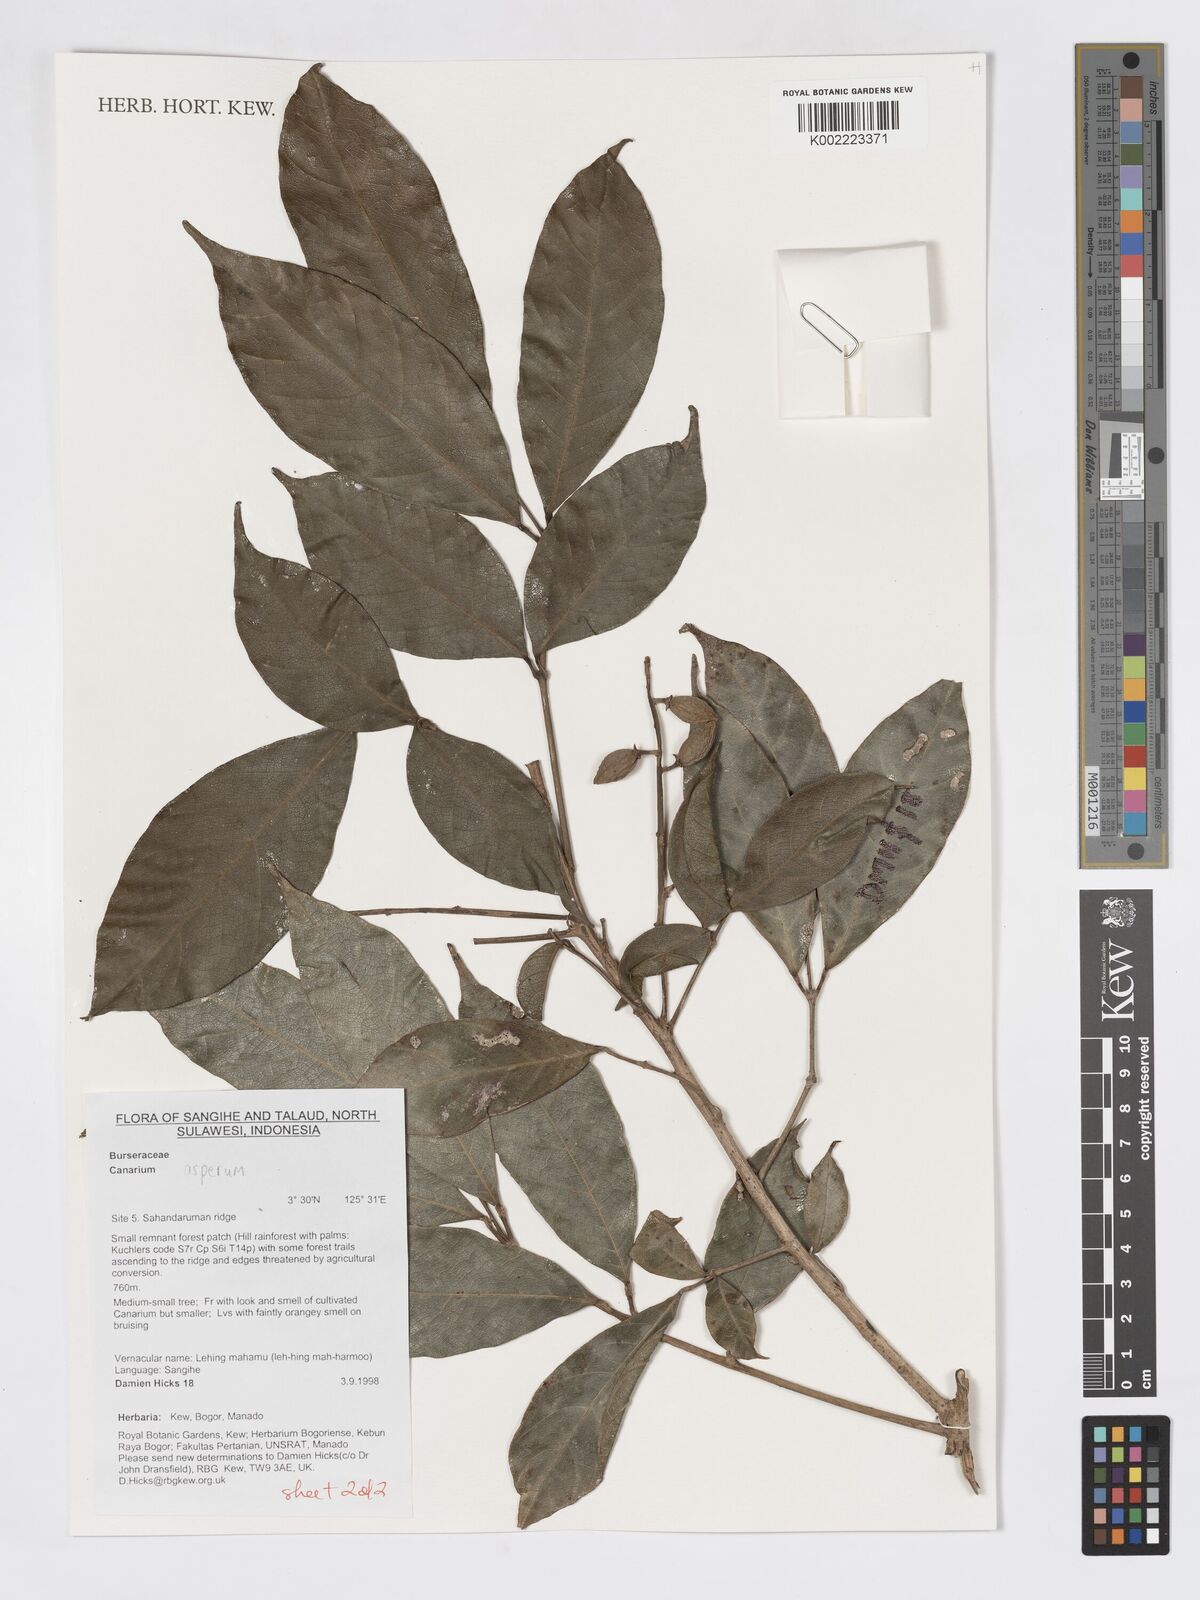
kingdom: Plantae
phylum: Tracheophyta
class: Magnoliopsida
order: Sapindales
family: Burseraceae
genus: Canarium
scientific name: Canarium asperum
